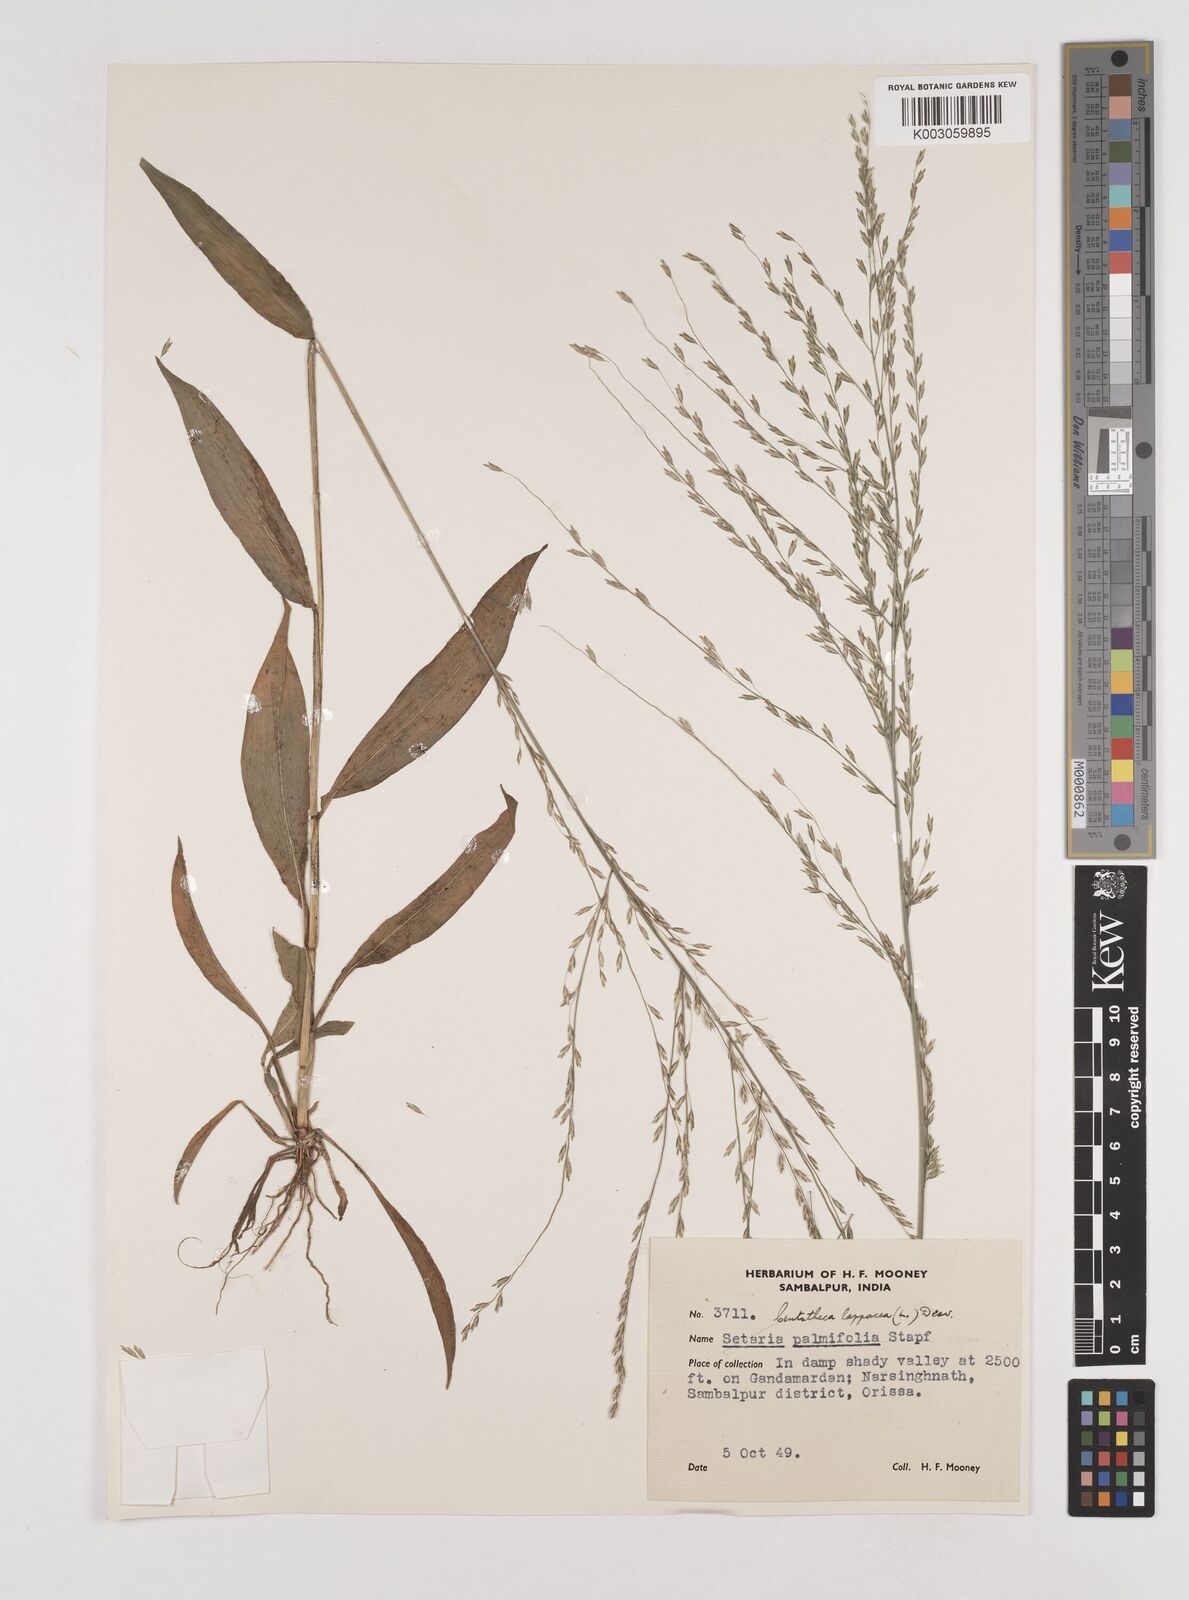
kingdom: Plantae
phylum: Tracheophyta
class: Liliopsida
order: Poales
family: Poaceae
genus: Centotheca
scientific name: Centotheca lappacea
